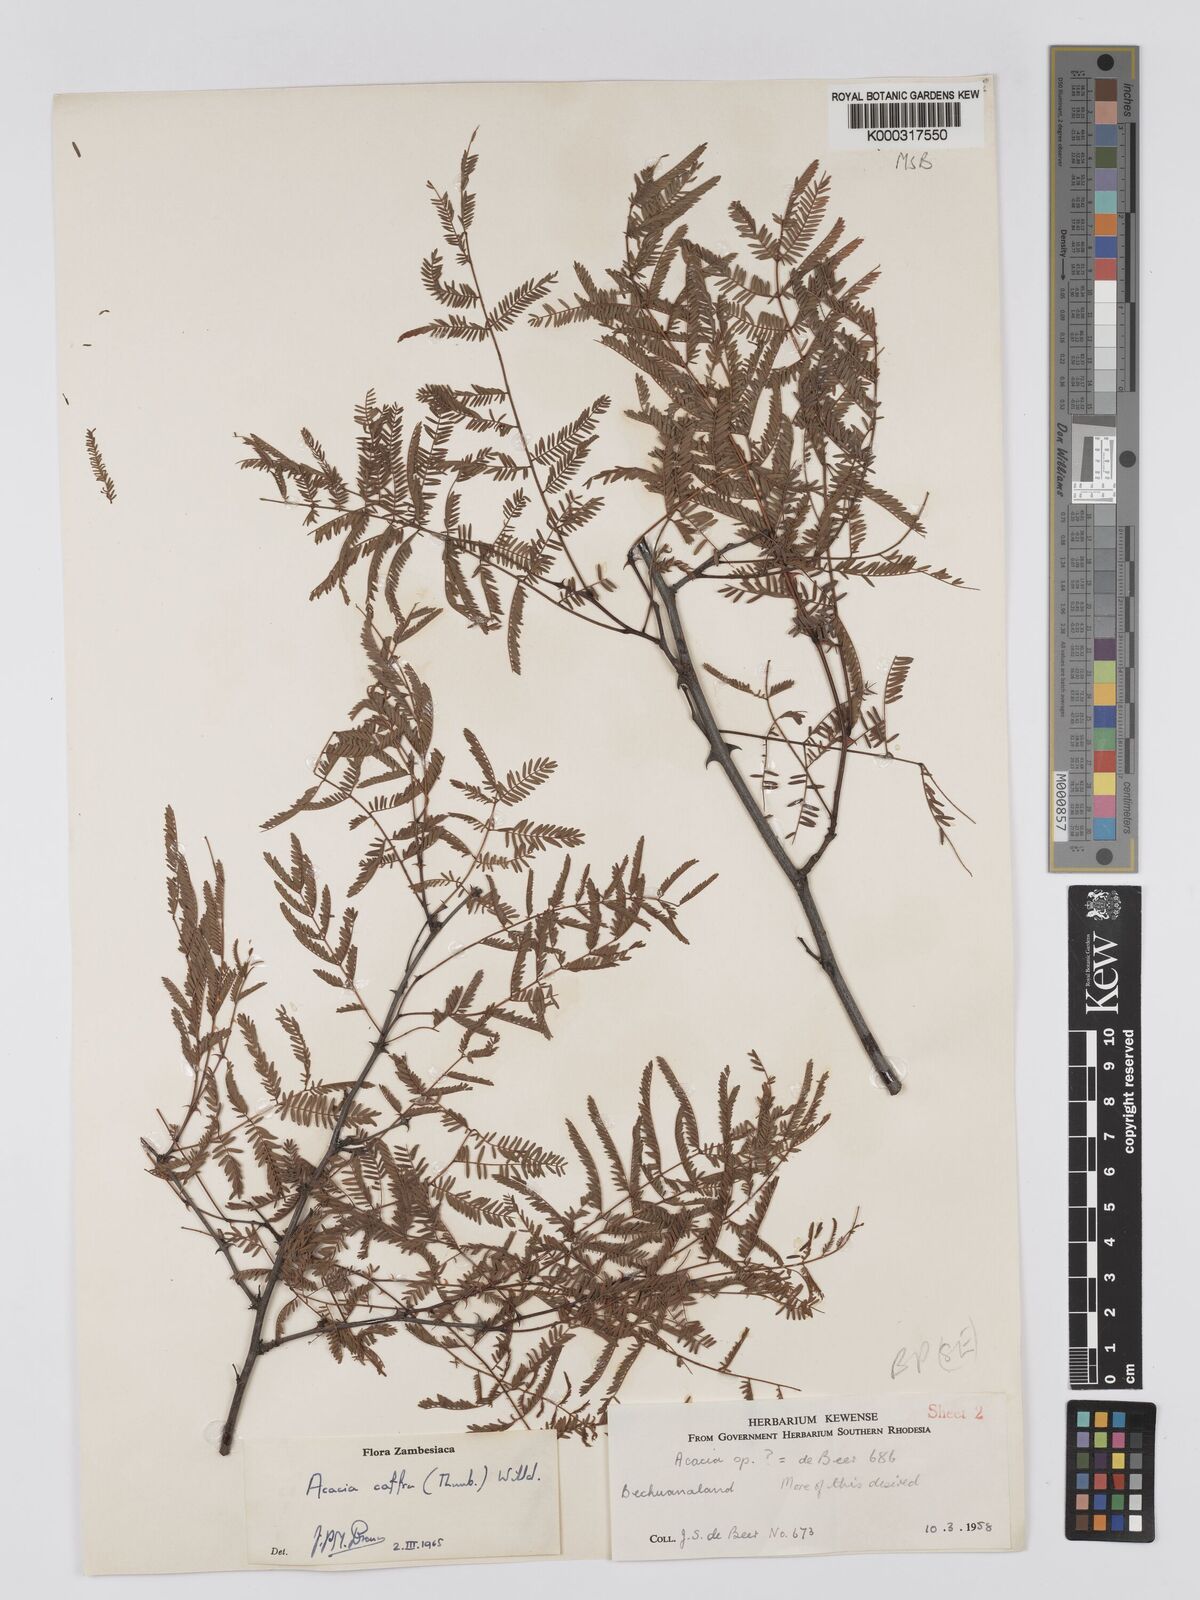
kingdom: Plantae
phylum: Tracheophyta
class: Magnoliopsida
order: Fabales
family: Fabaceae
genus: Senegalia
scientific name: Senegalia caffra
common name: Cat thorn
